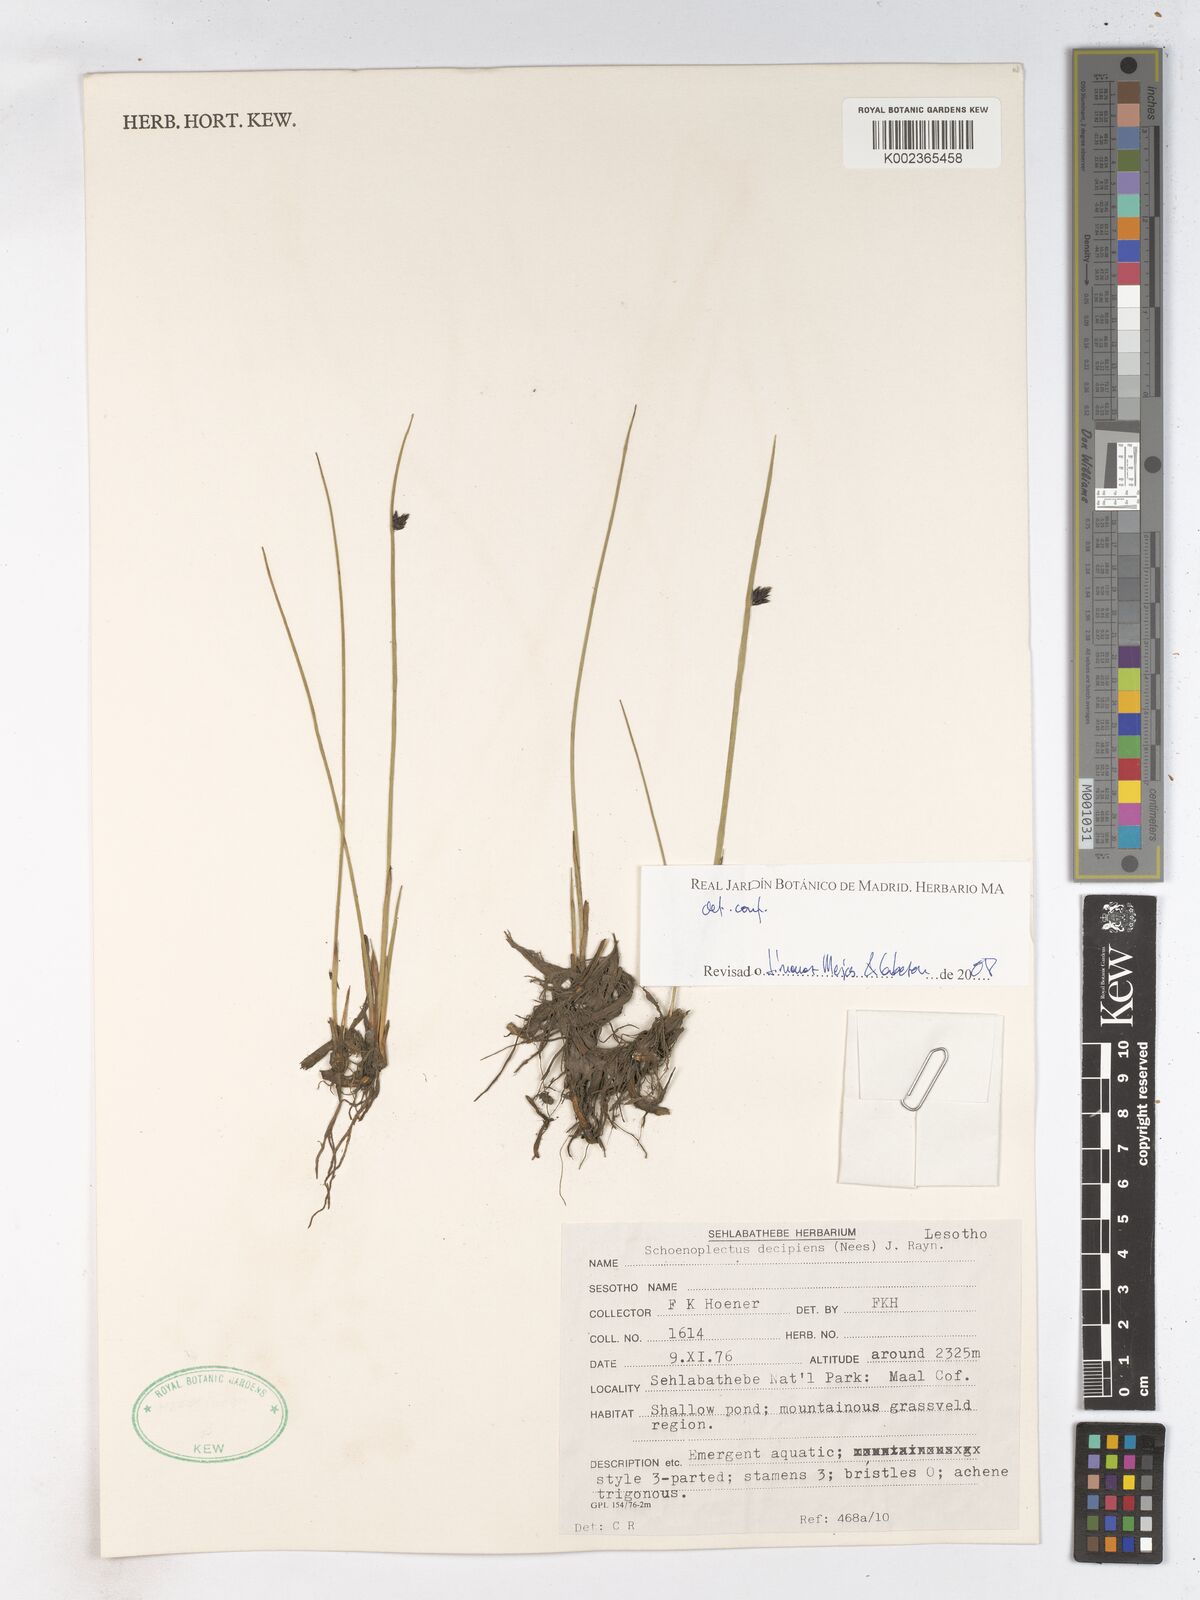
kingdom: Plantae
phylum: Tracheophyta
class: Liliopsida
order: Poales
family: Cyperaceae
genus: Schoenoplectiella
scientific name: Schoenoplectiella paludicola
